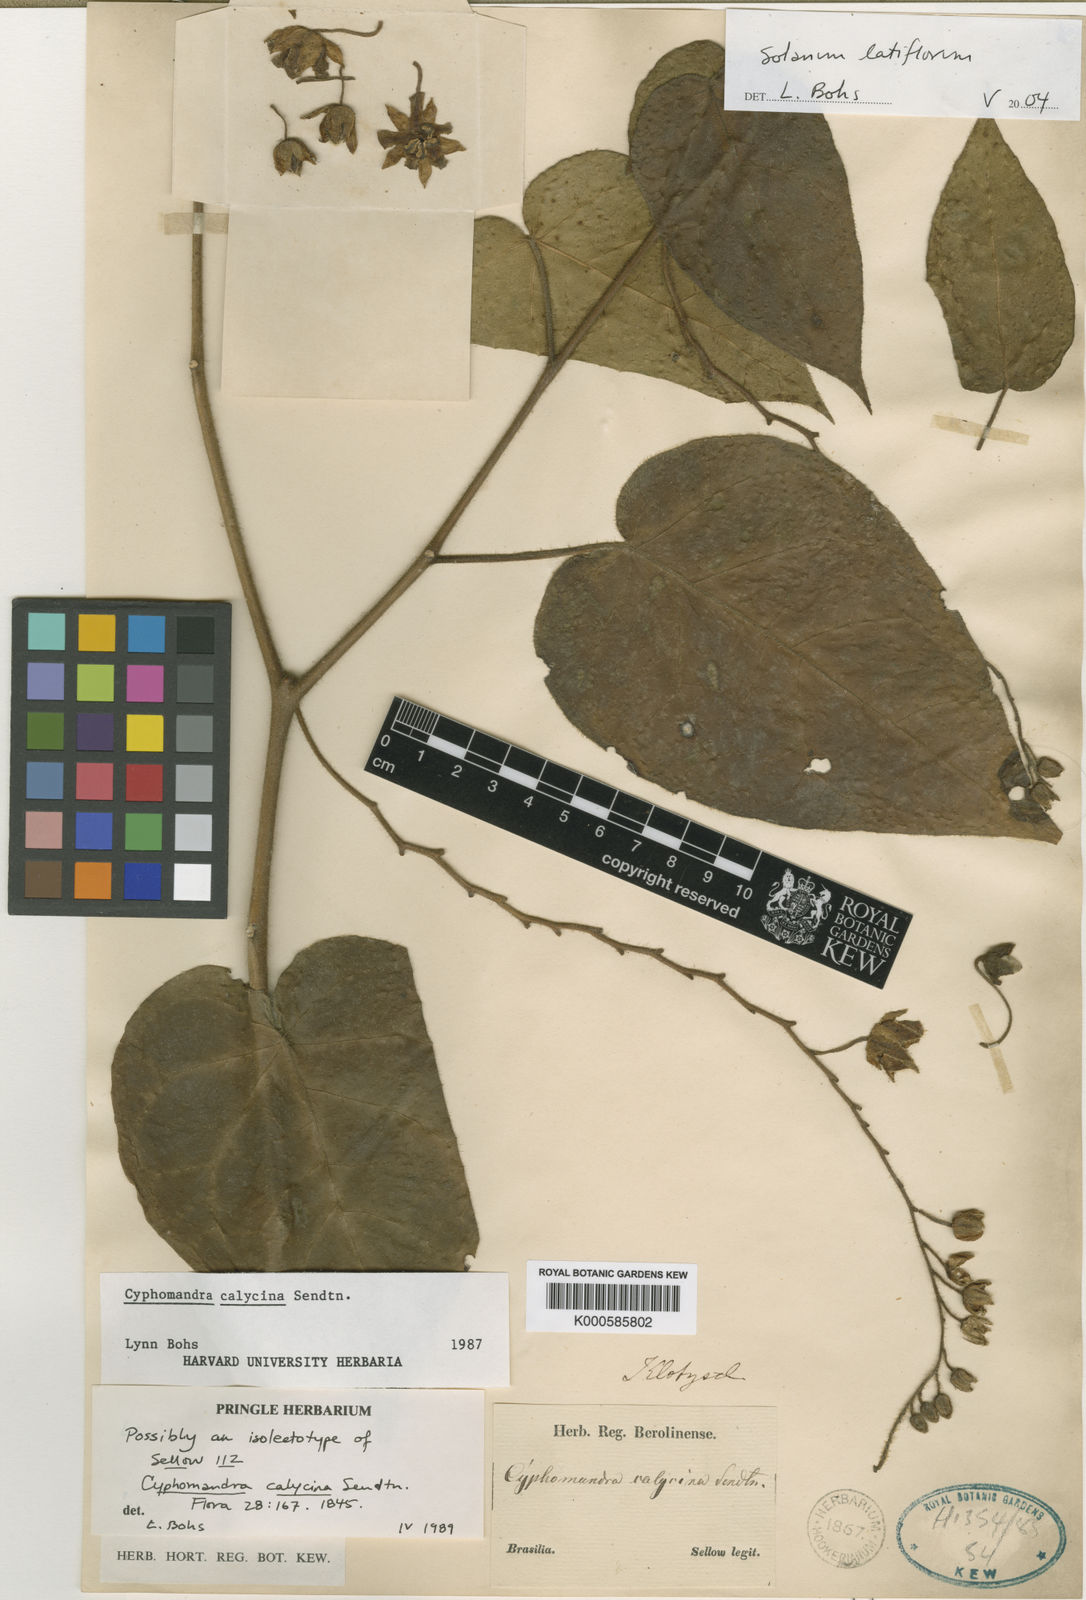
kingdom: Plantae
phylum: Tracheophyta
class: Magnoliopsida
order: Solanales
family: Solanaceae
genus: Solanum
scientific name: Solanum latiflorum
